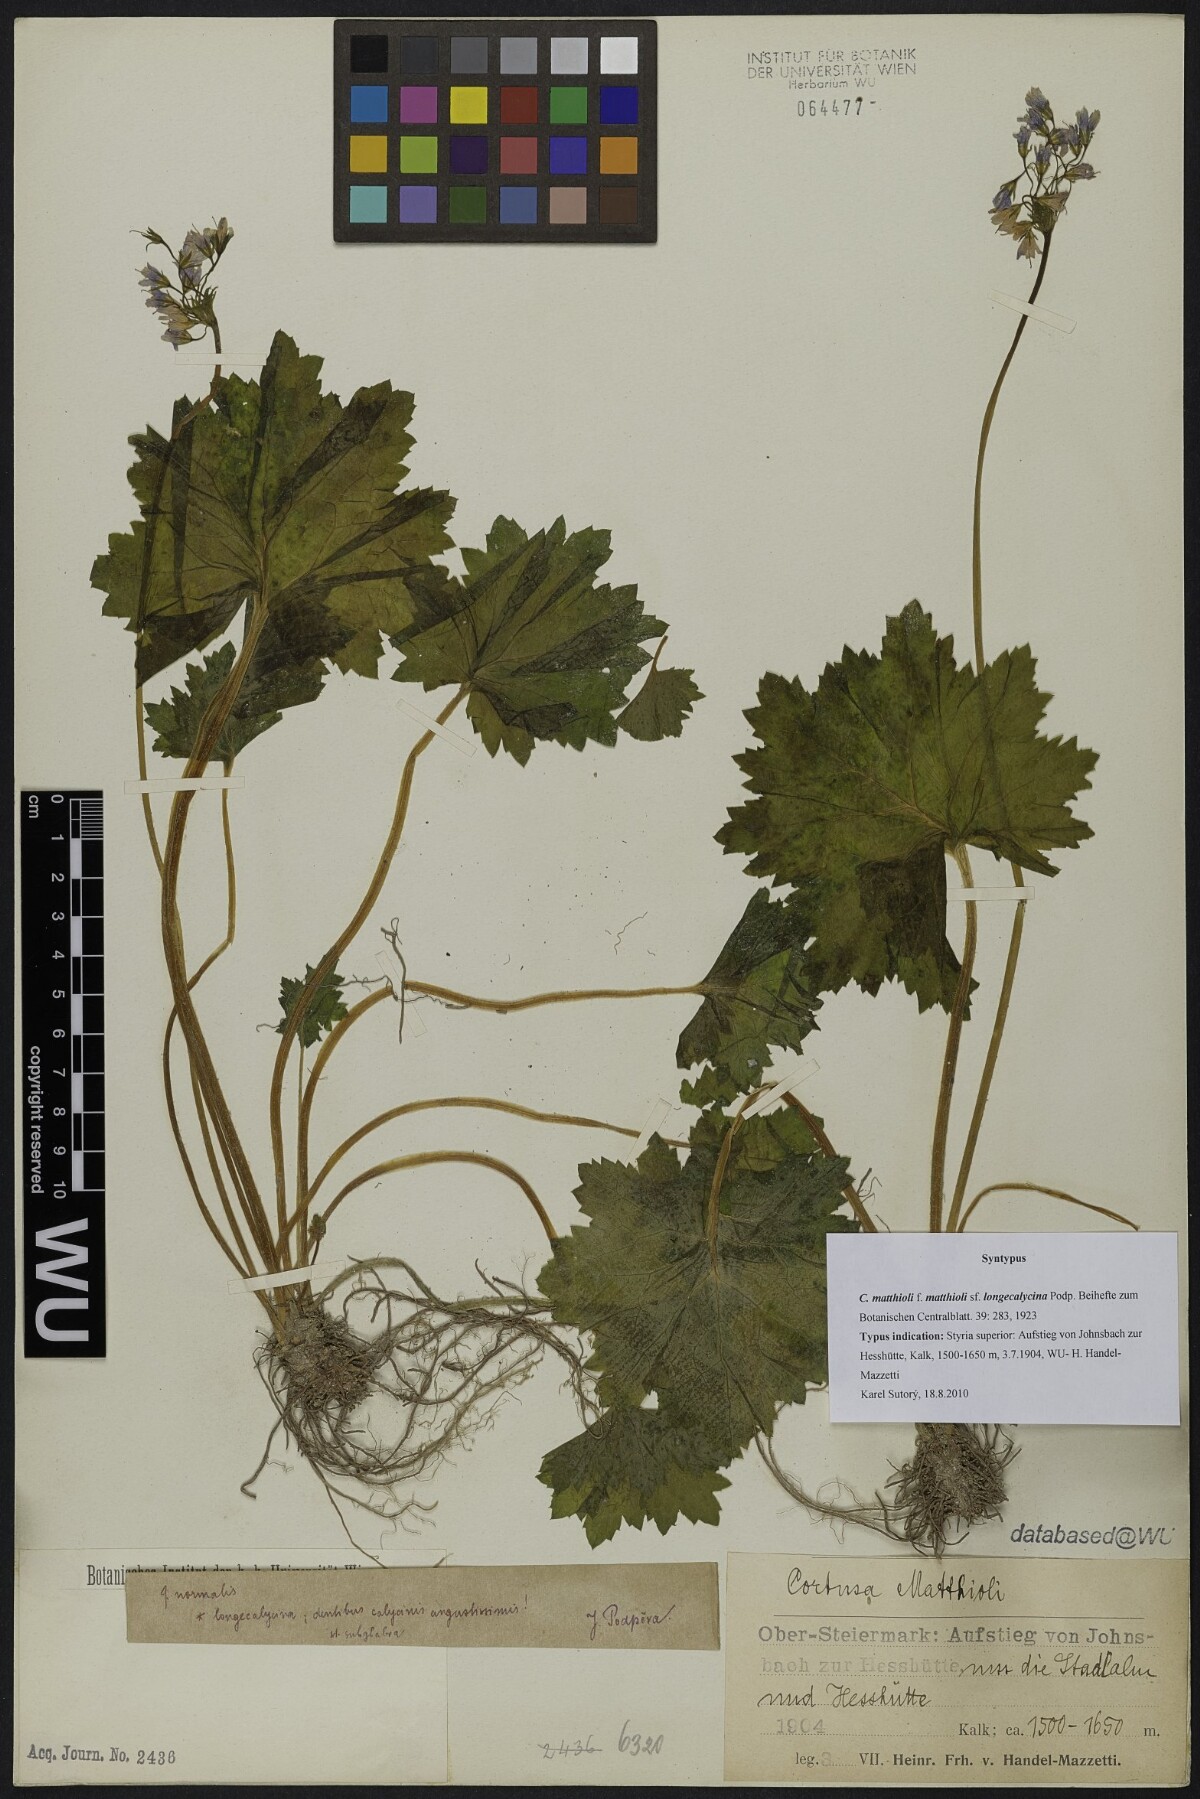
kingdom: Plantae
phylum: Tracheophyta
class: Magnoliopsida
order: Ericales
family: Primulaceae
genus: Primula
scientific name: Primula matthioli
